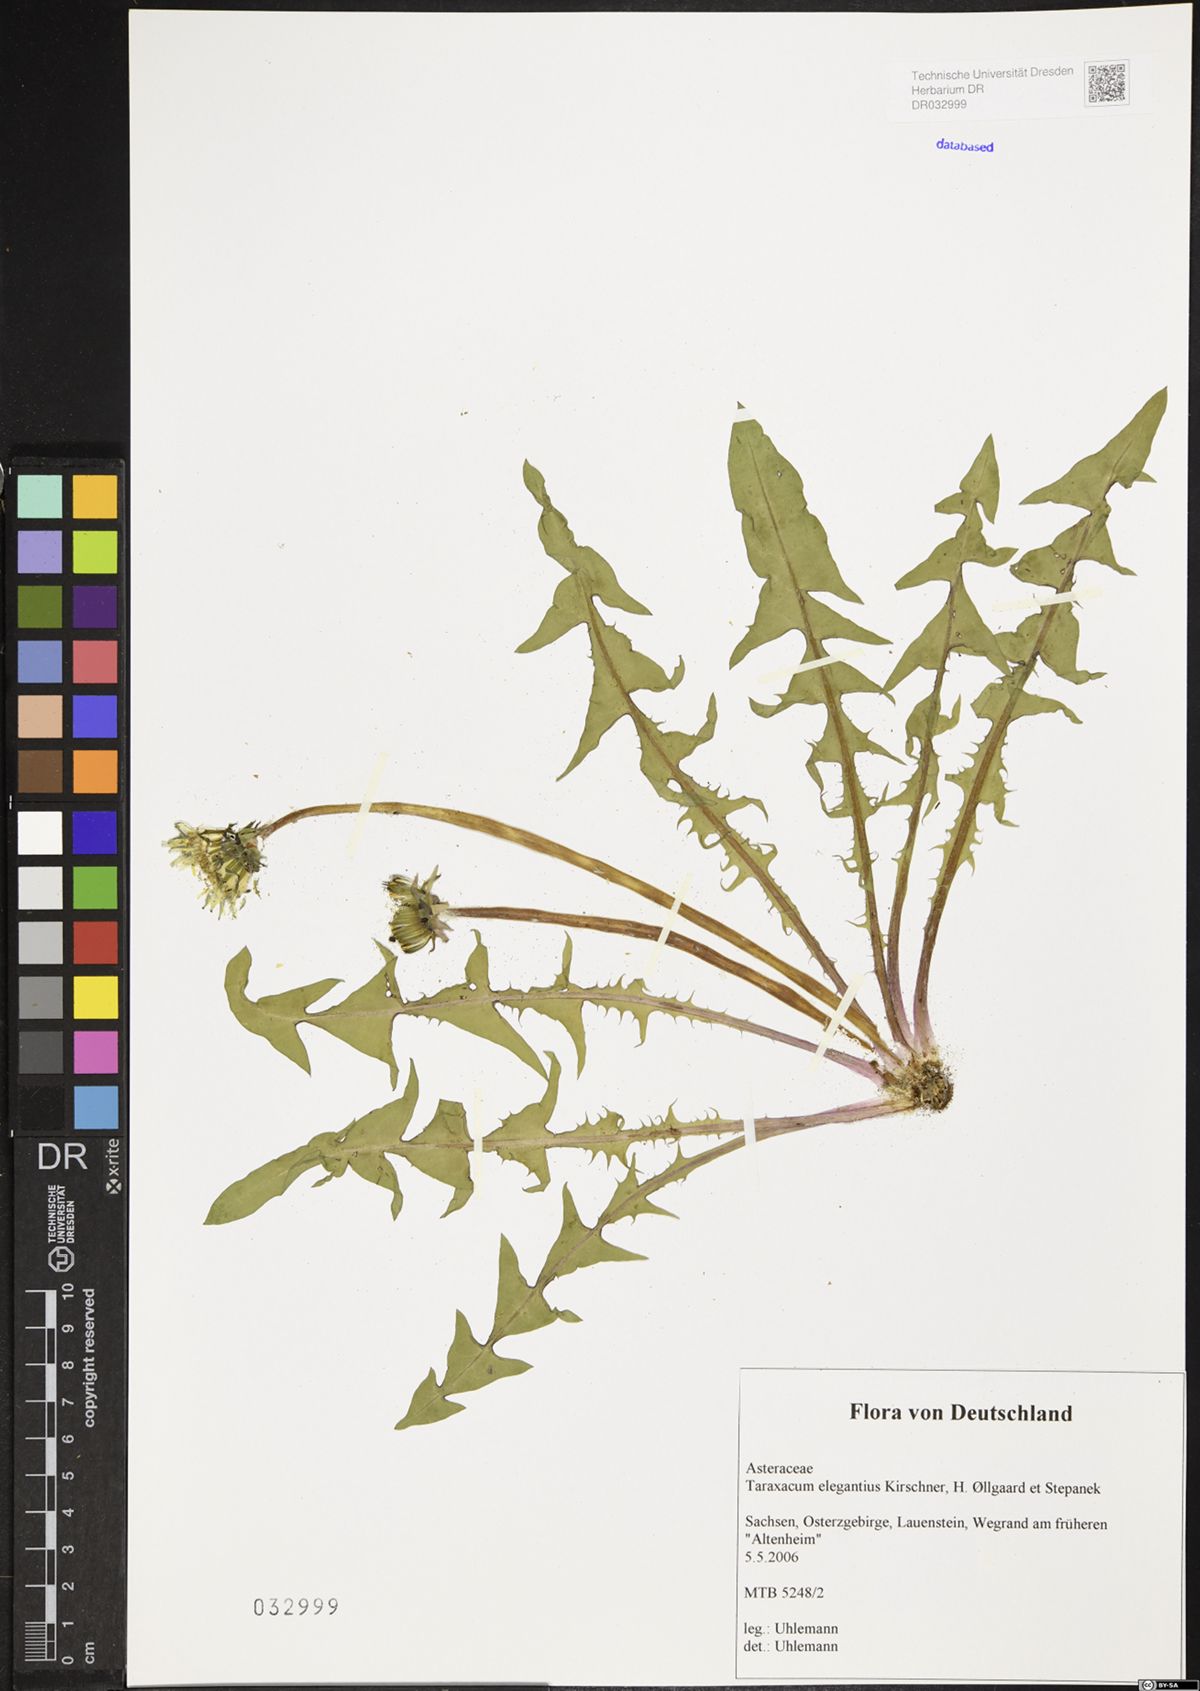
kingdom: Plantae
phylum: Tracheophyta
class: Magnoliopsida
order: Asterales
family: Asteraceae
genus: Taraxacum
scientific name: Taraxacum elegantius
